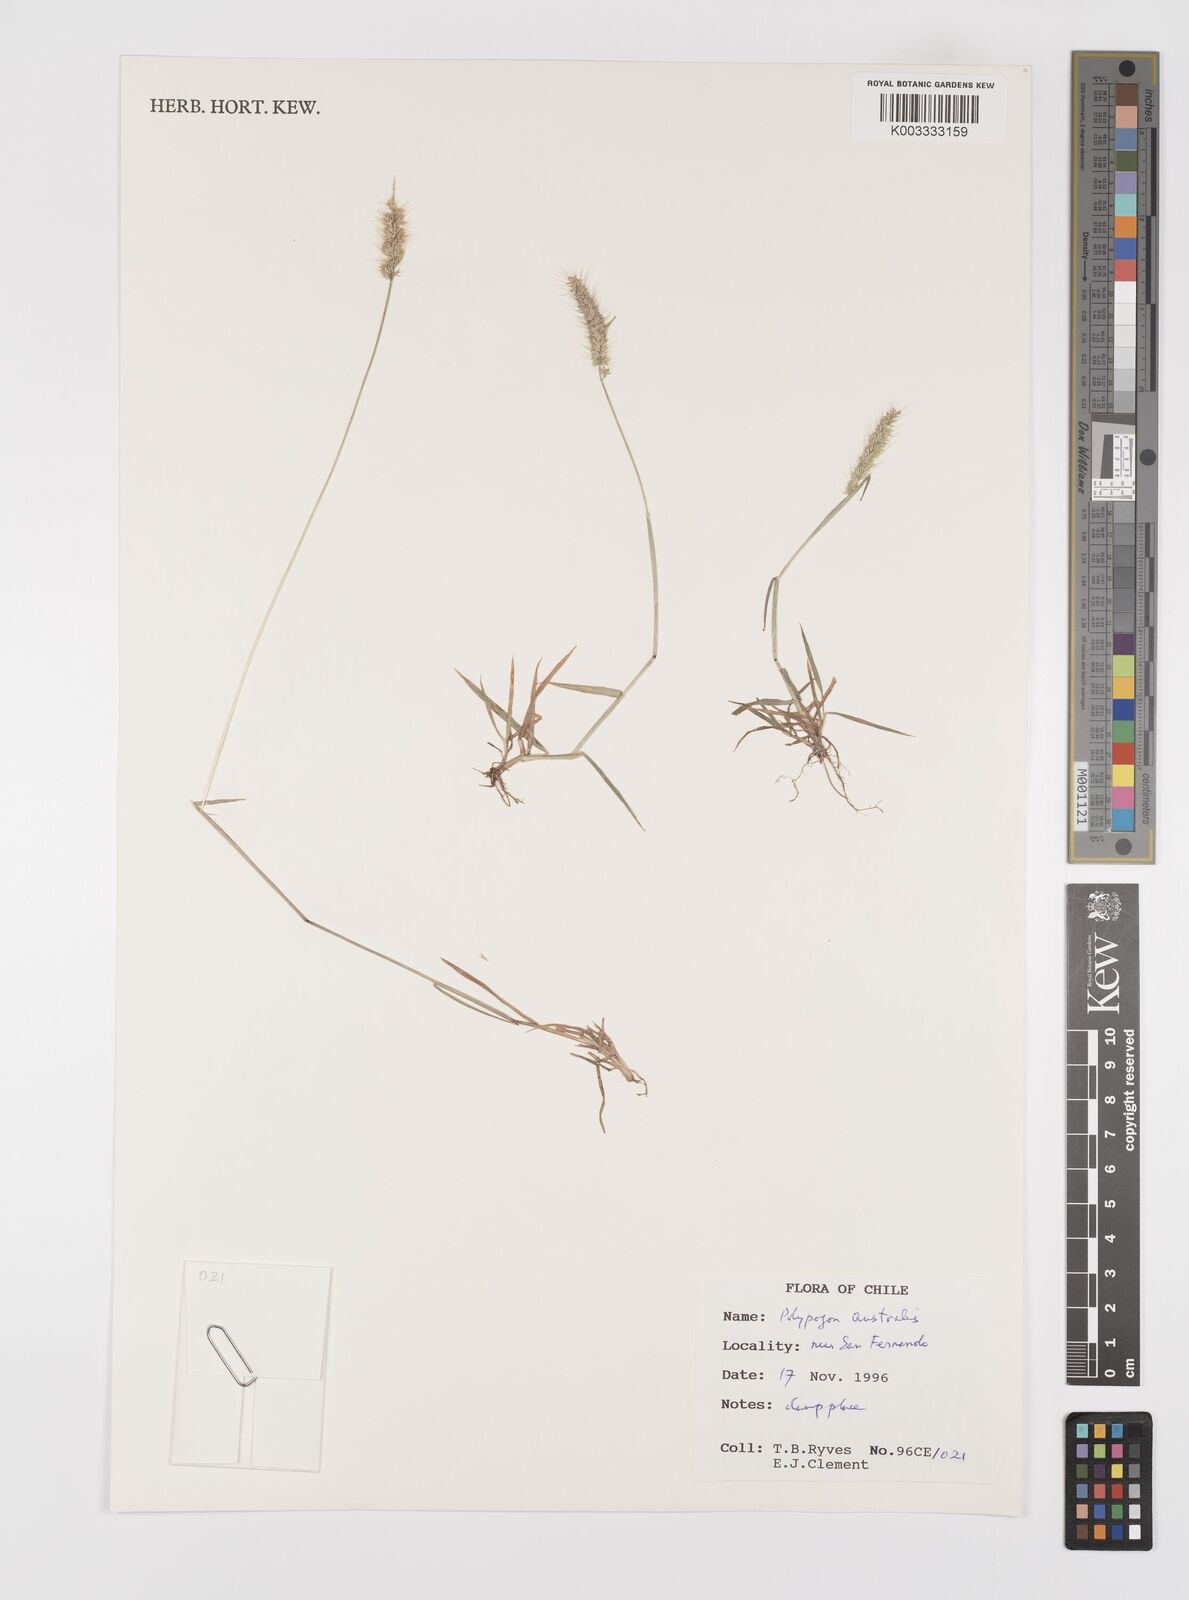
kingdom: Plantae
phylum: Tracheophyta
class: Liliopsida
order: Poales
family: Poaceae
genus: Polypogon
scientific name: Polypogon australis
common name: Chilean rabbitsfoot grass
